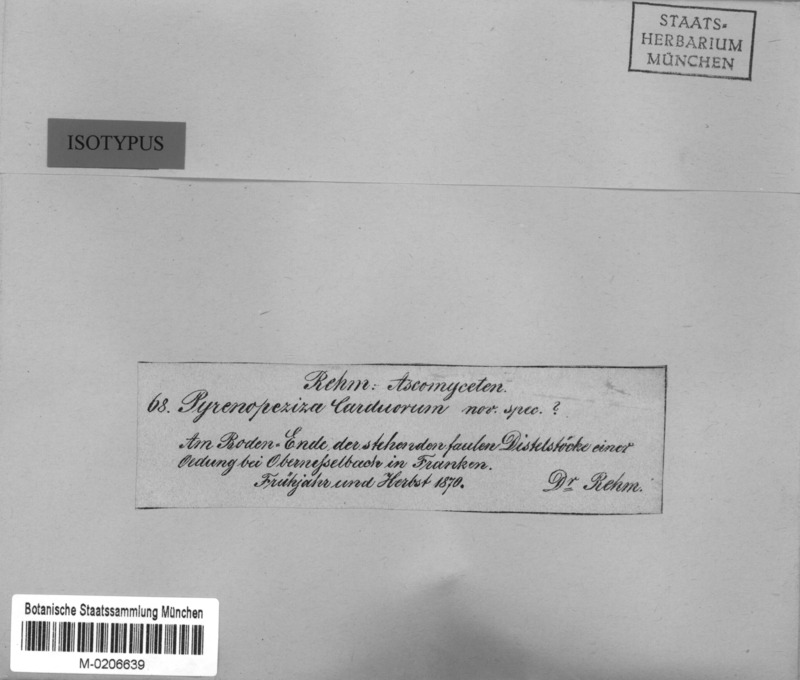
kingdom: Fungi
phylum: Ascomycota
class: Leotiomycetes
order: Helotiales
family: Ploettnerulaceae
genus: Pyrenopeziza
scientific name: Pyrenopeziza carduorum
